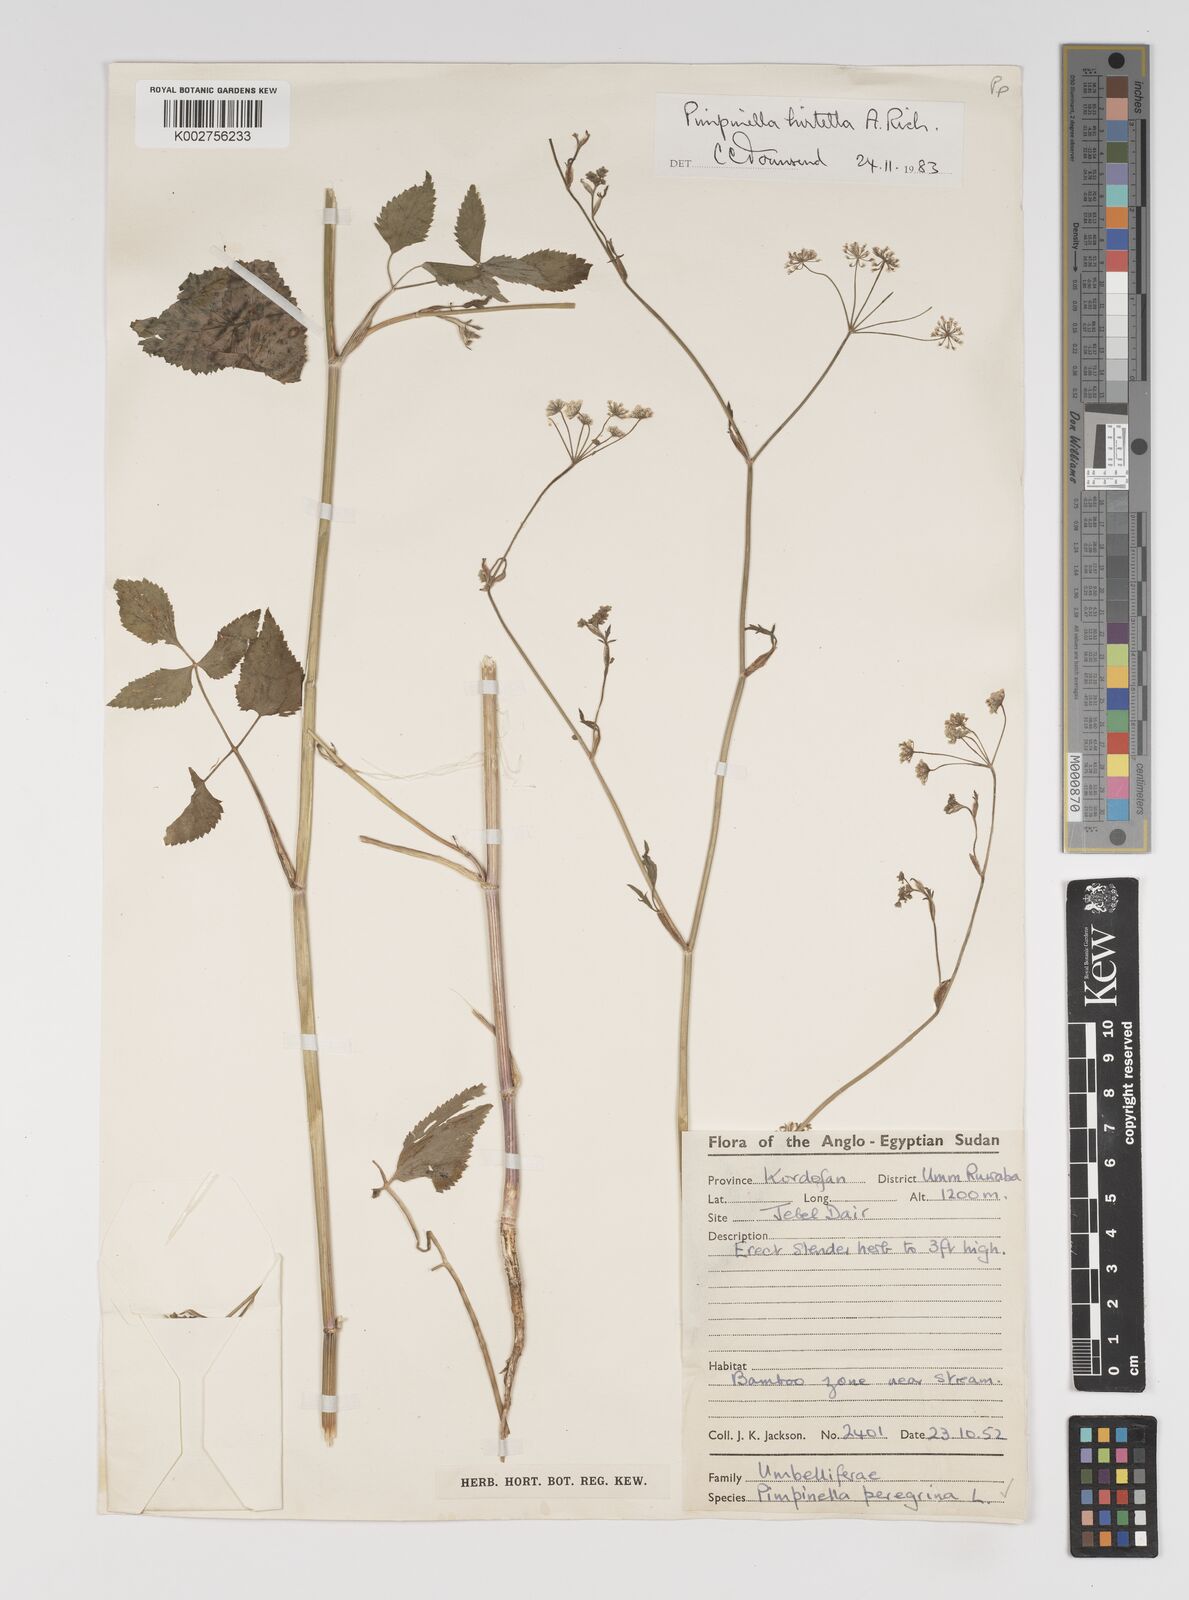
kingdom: Plantae
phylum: Tracheophyta
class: Magnoliopsida
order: Apiales
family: Apiaceae
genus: Pimpinella
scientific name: Pimpinella hirtella
